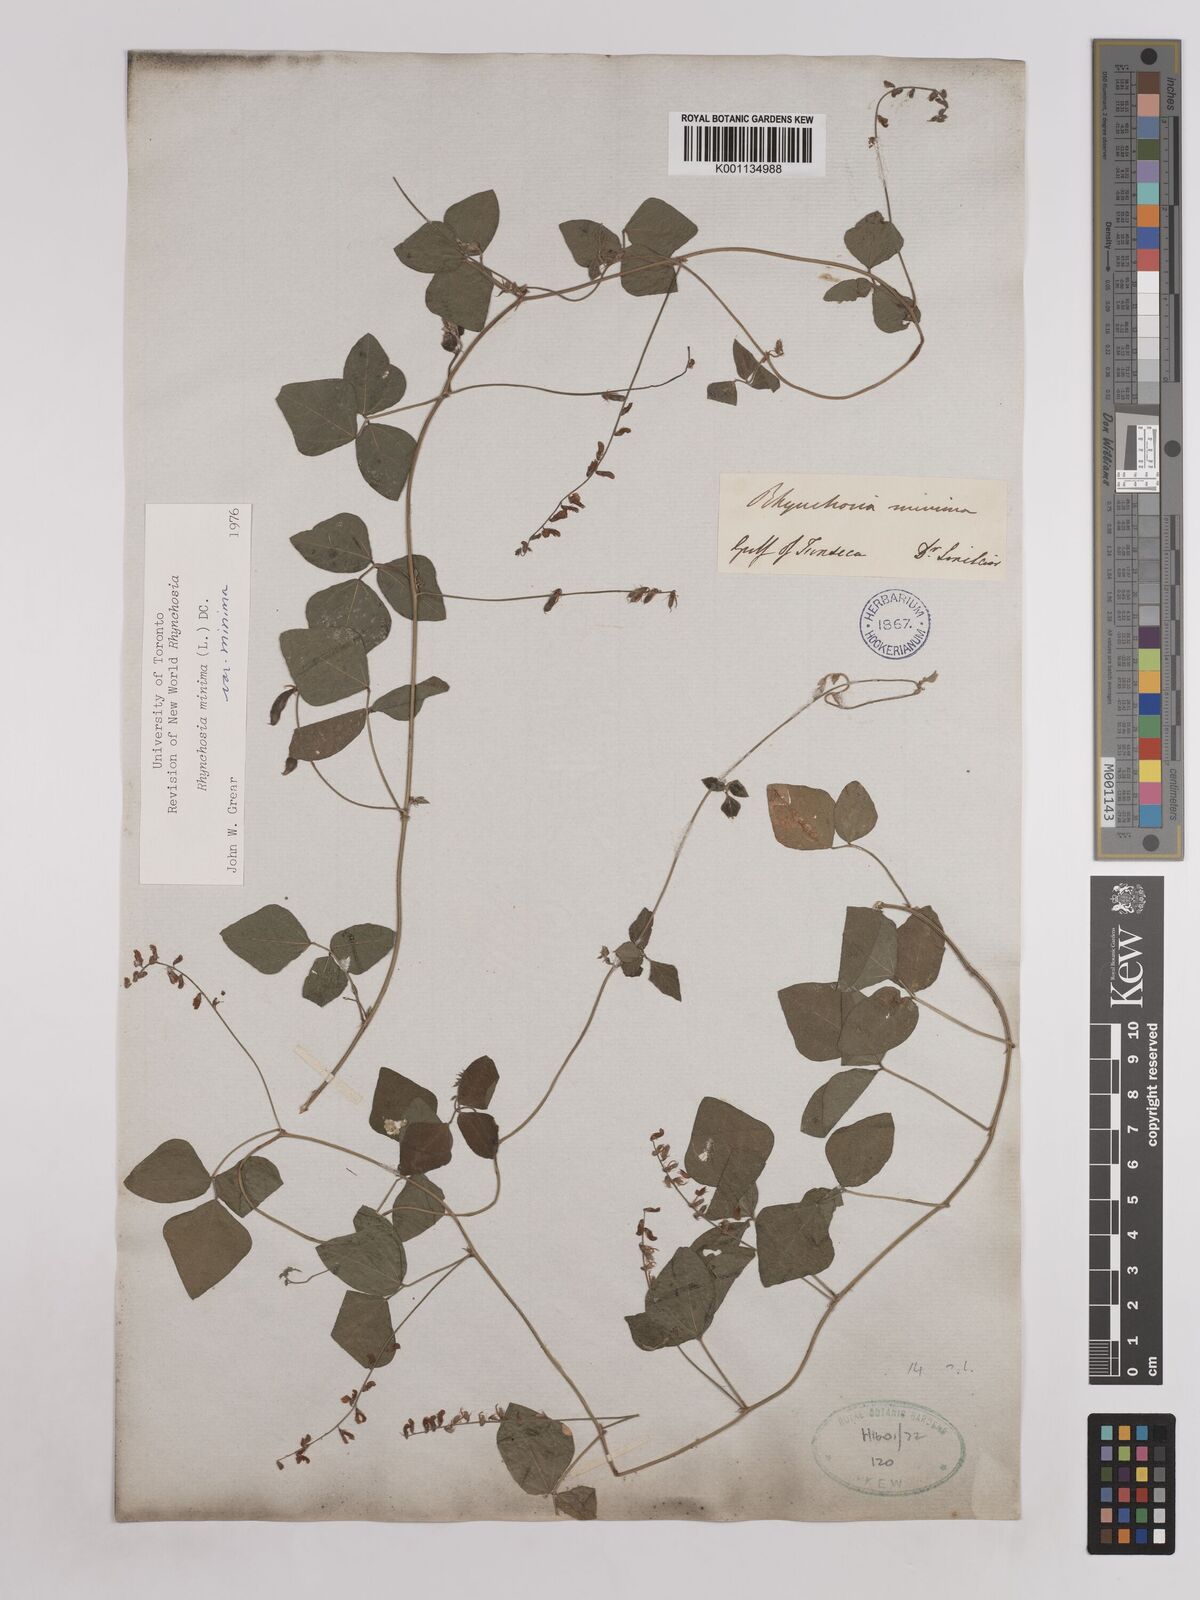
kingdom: Plantae
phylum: Tracheophyta
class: Magnoliopsida
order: Fabales
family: Fabaceae
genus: Rhynchosia
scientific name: Rhynchosia minima
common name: Least snoutbean
